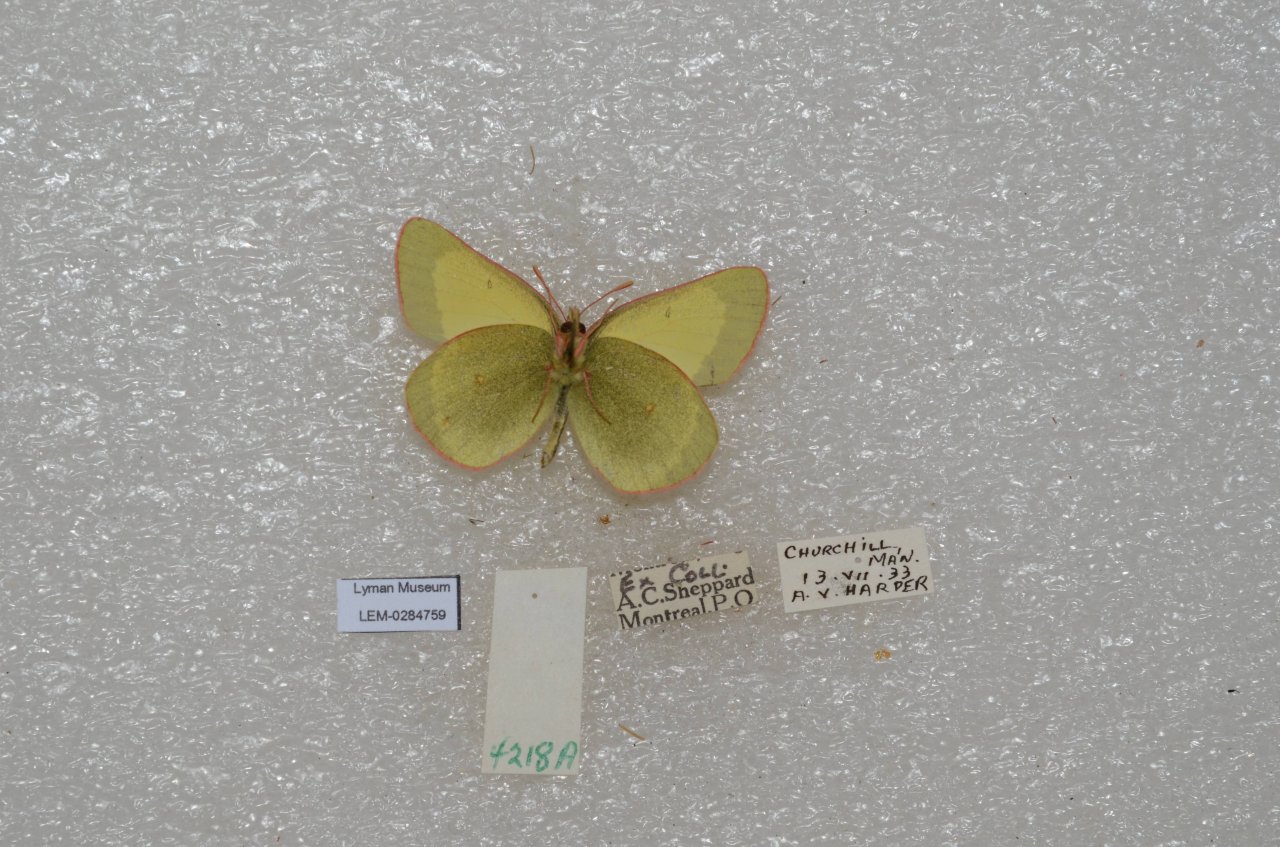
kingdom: Animalia
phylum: Arthropoda
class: Insecta
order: Lepidoptera
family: Pieridae
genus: Colias
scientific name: Colias pelidne
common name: Pelidne Sulphur
